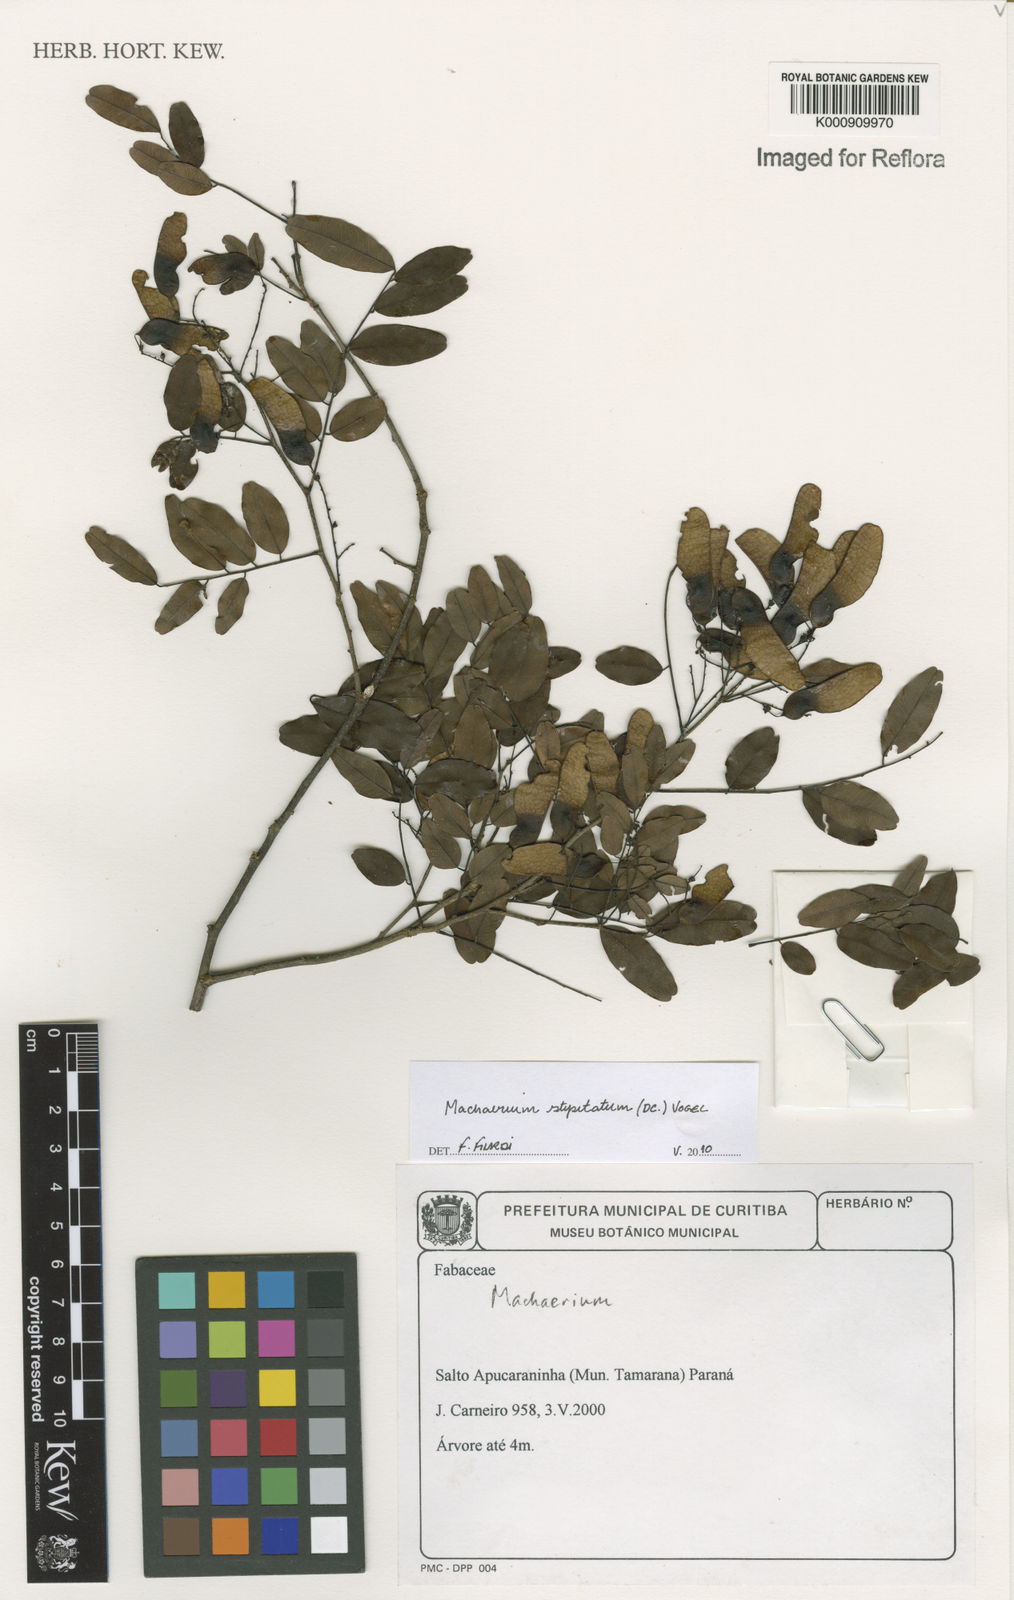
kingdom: Plantae
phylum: Tracheophyta
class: Magnoliopsida
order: Fabales
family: Fabaceae
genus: Machaerium
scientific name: Machaerium stipitatum
